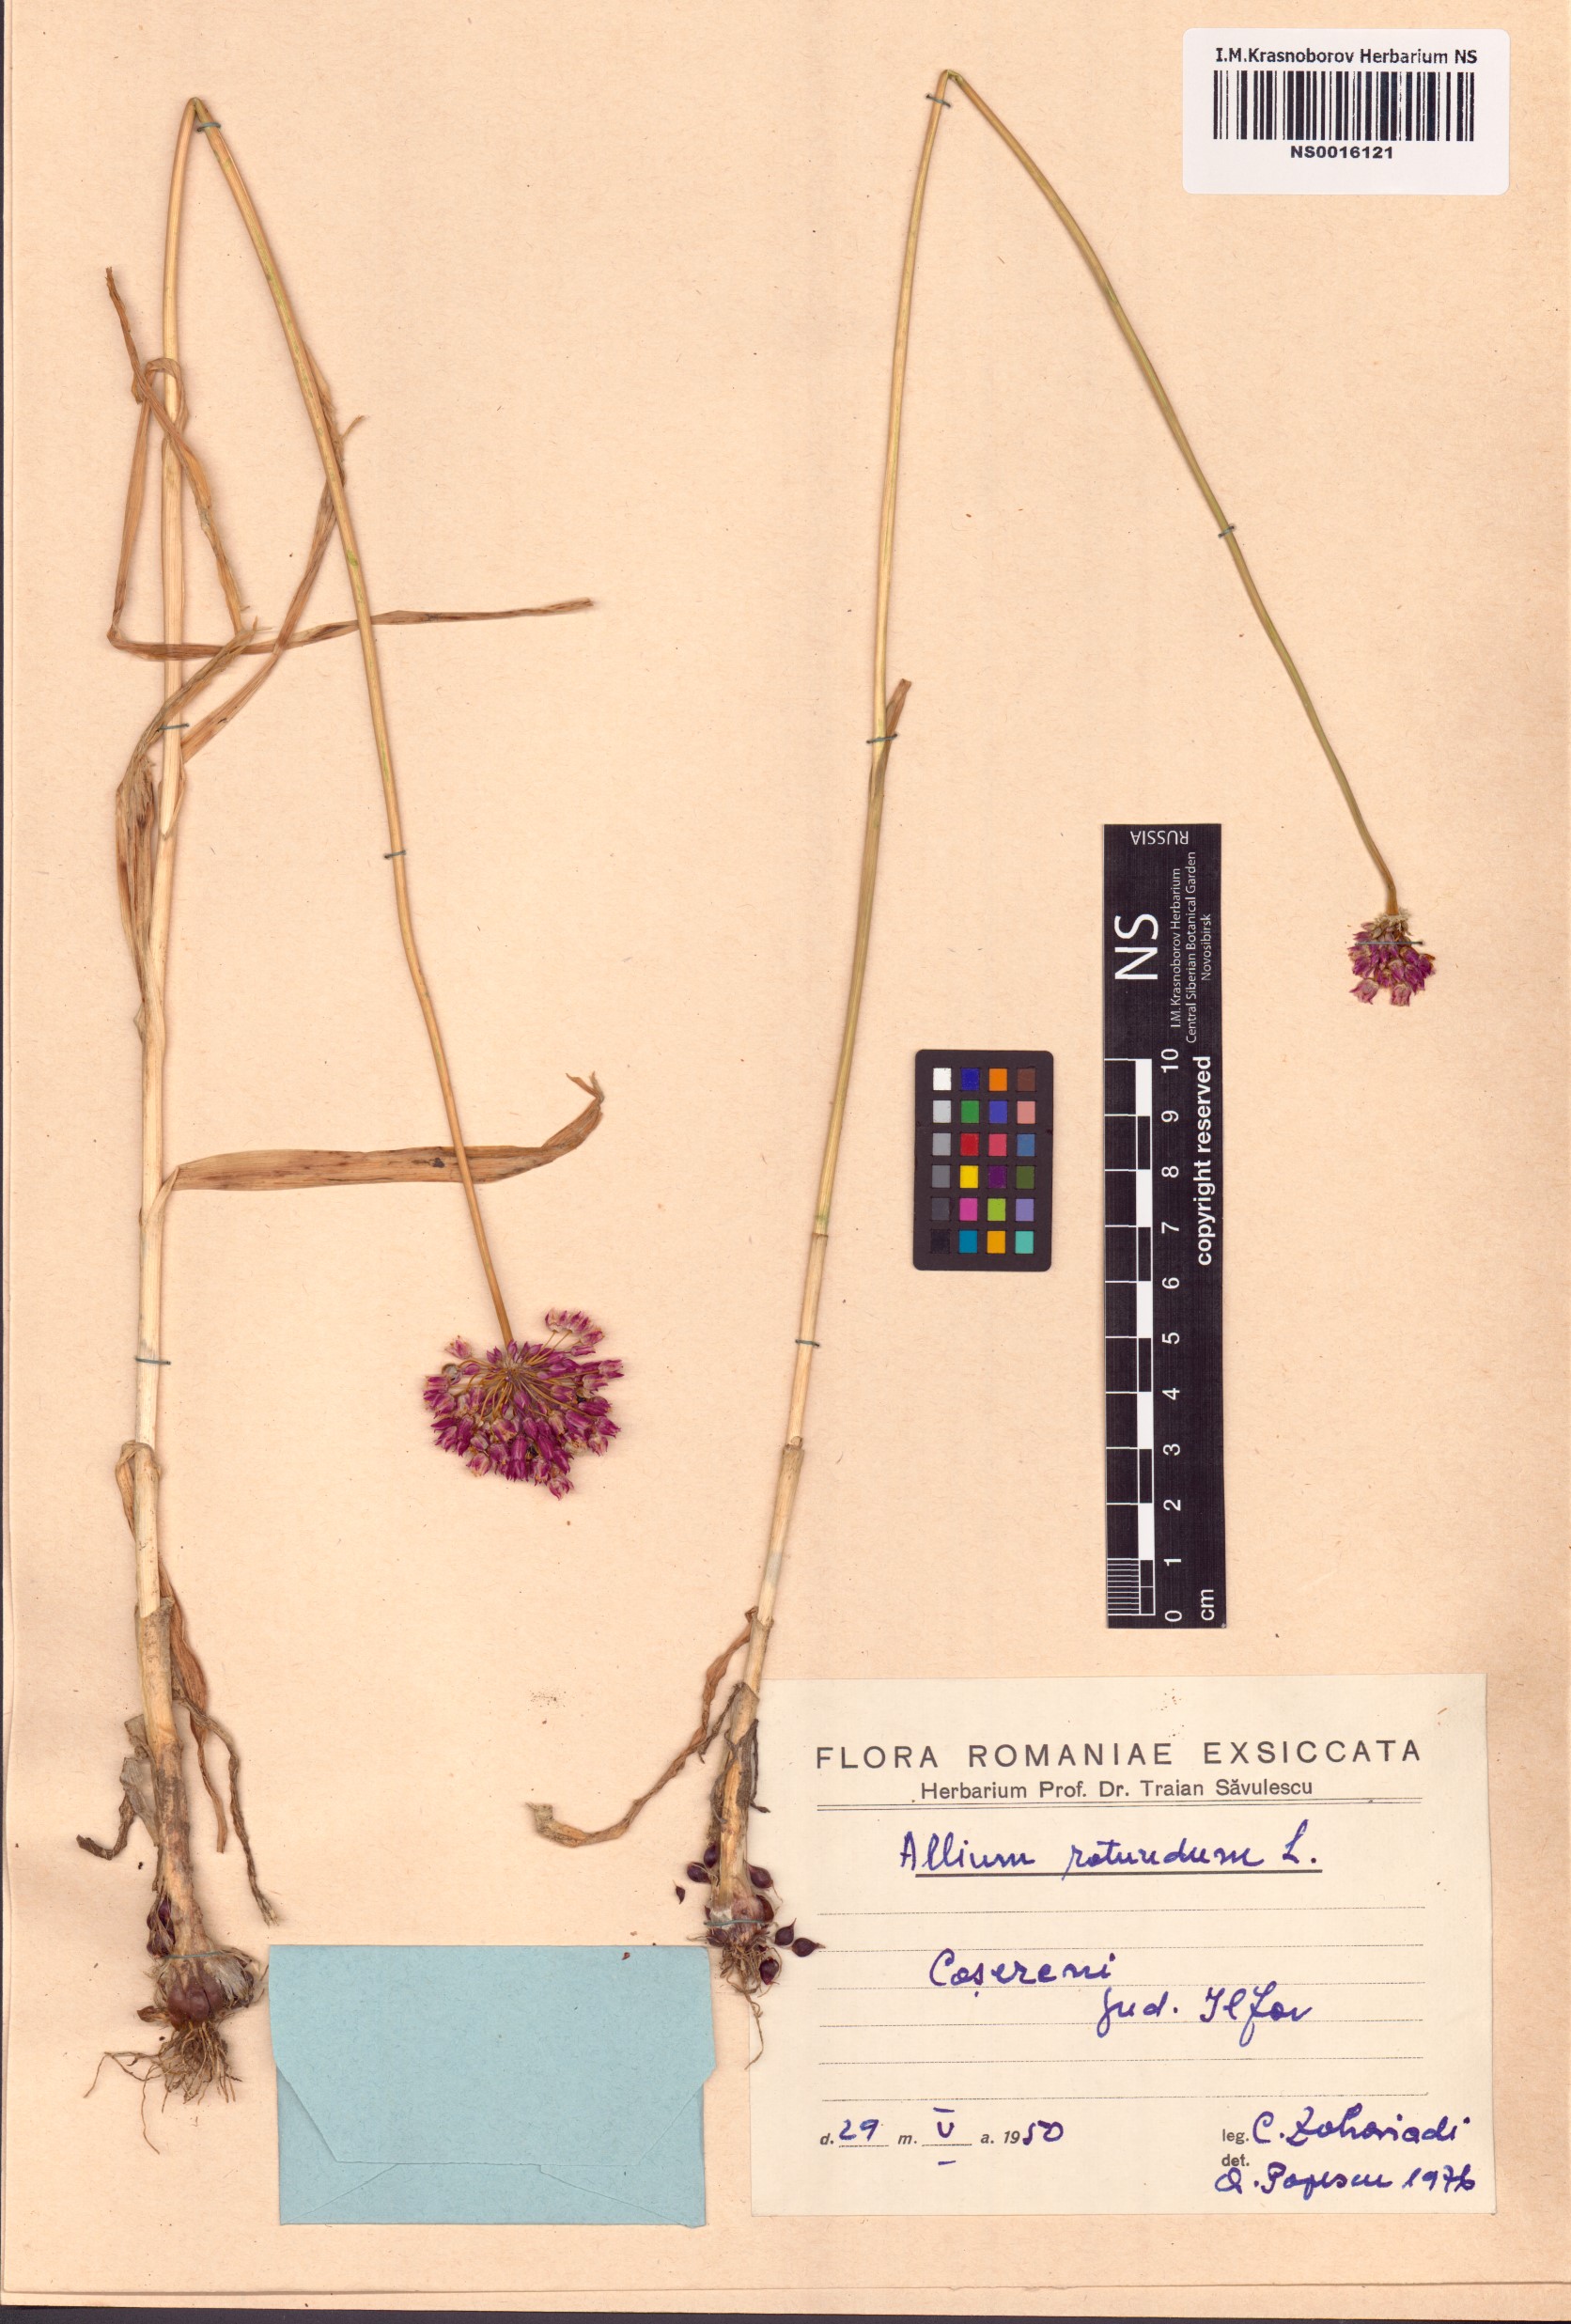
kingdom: Plantae
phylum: Tracheophyta
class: Liliopsida
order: Asparagales
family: Amaryllidaceae
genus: Allium
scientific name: Allium rotundum
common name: Sand leek
